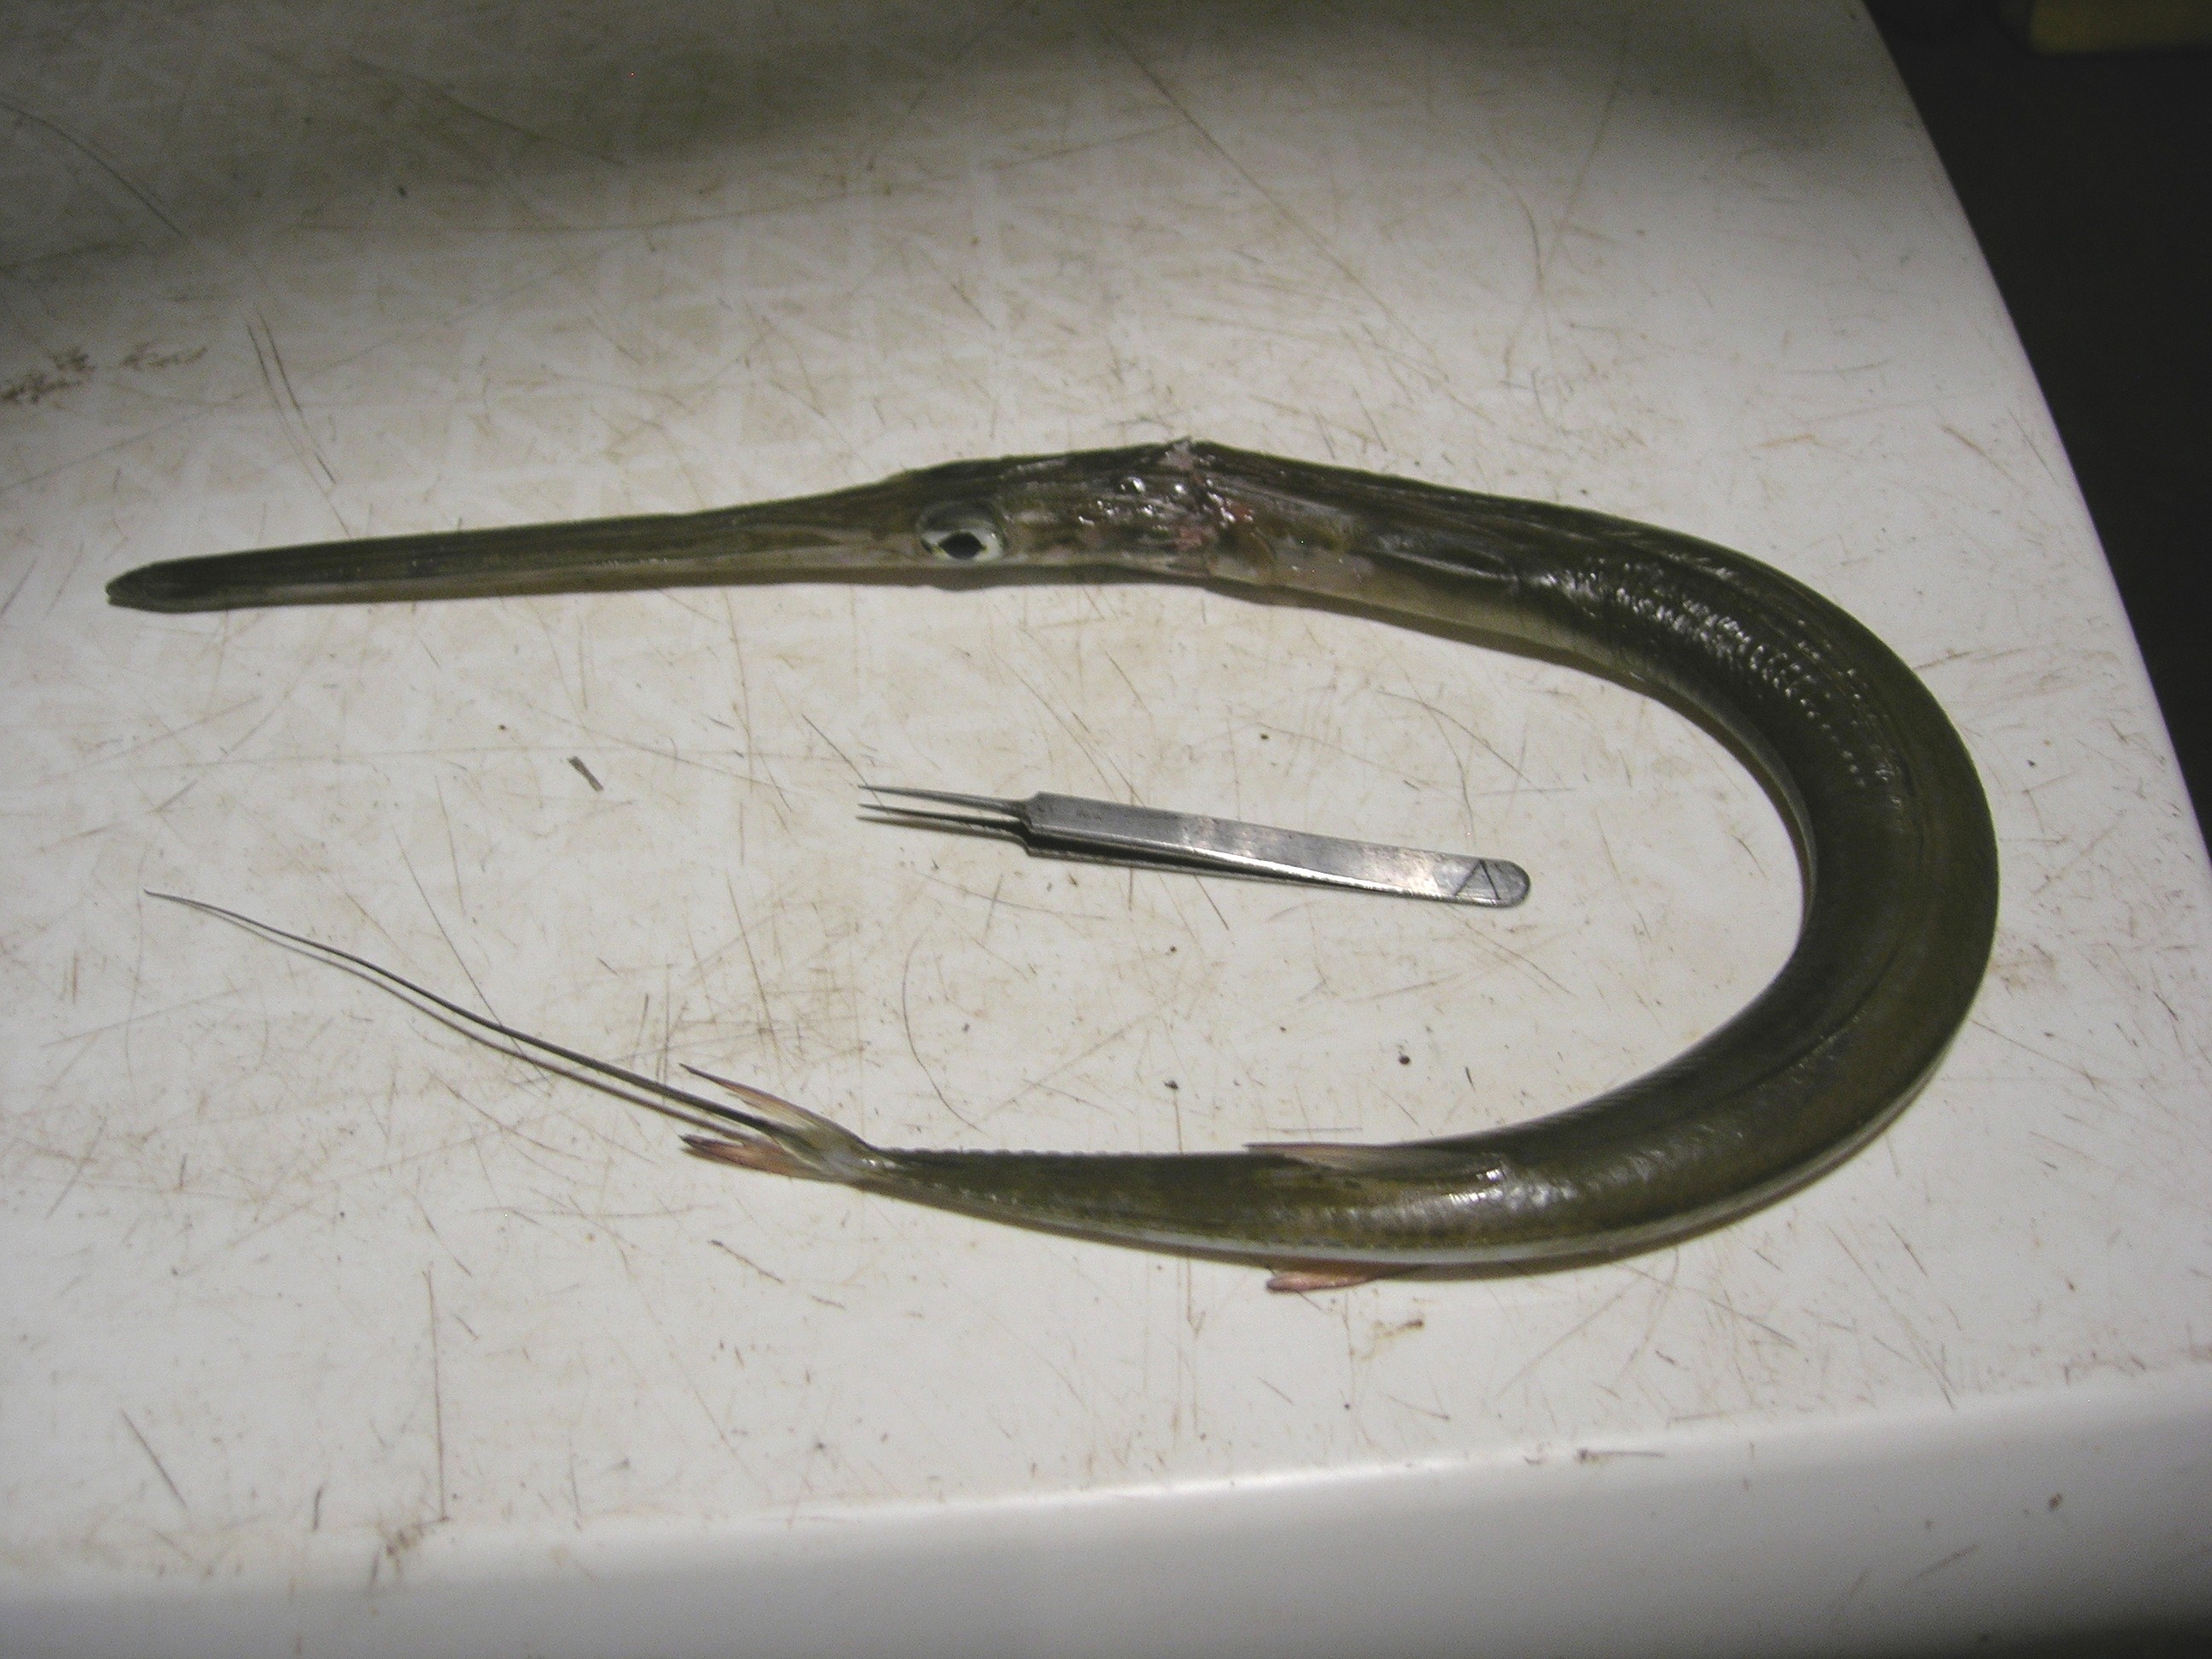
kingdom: Animalia
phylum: Chordata
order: Syngnathiformes
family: Fistulariidae
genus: Fistularia
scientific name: Fistularia commersonii
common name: Bluespotted cornetfish
